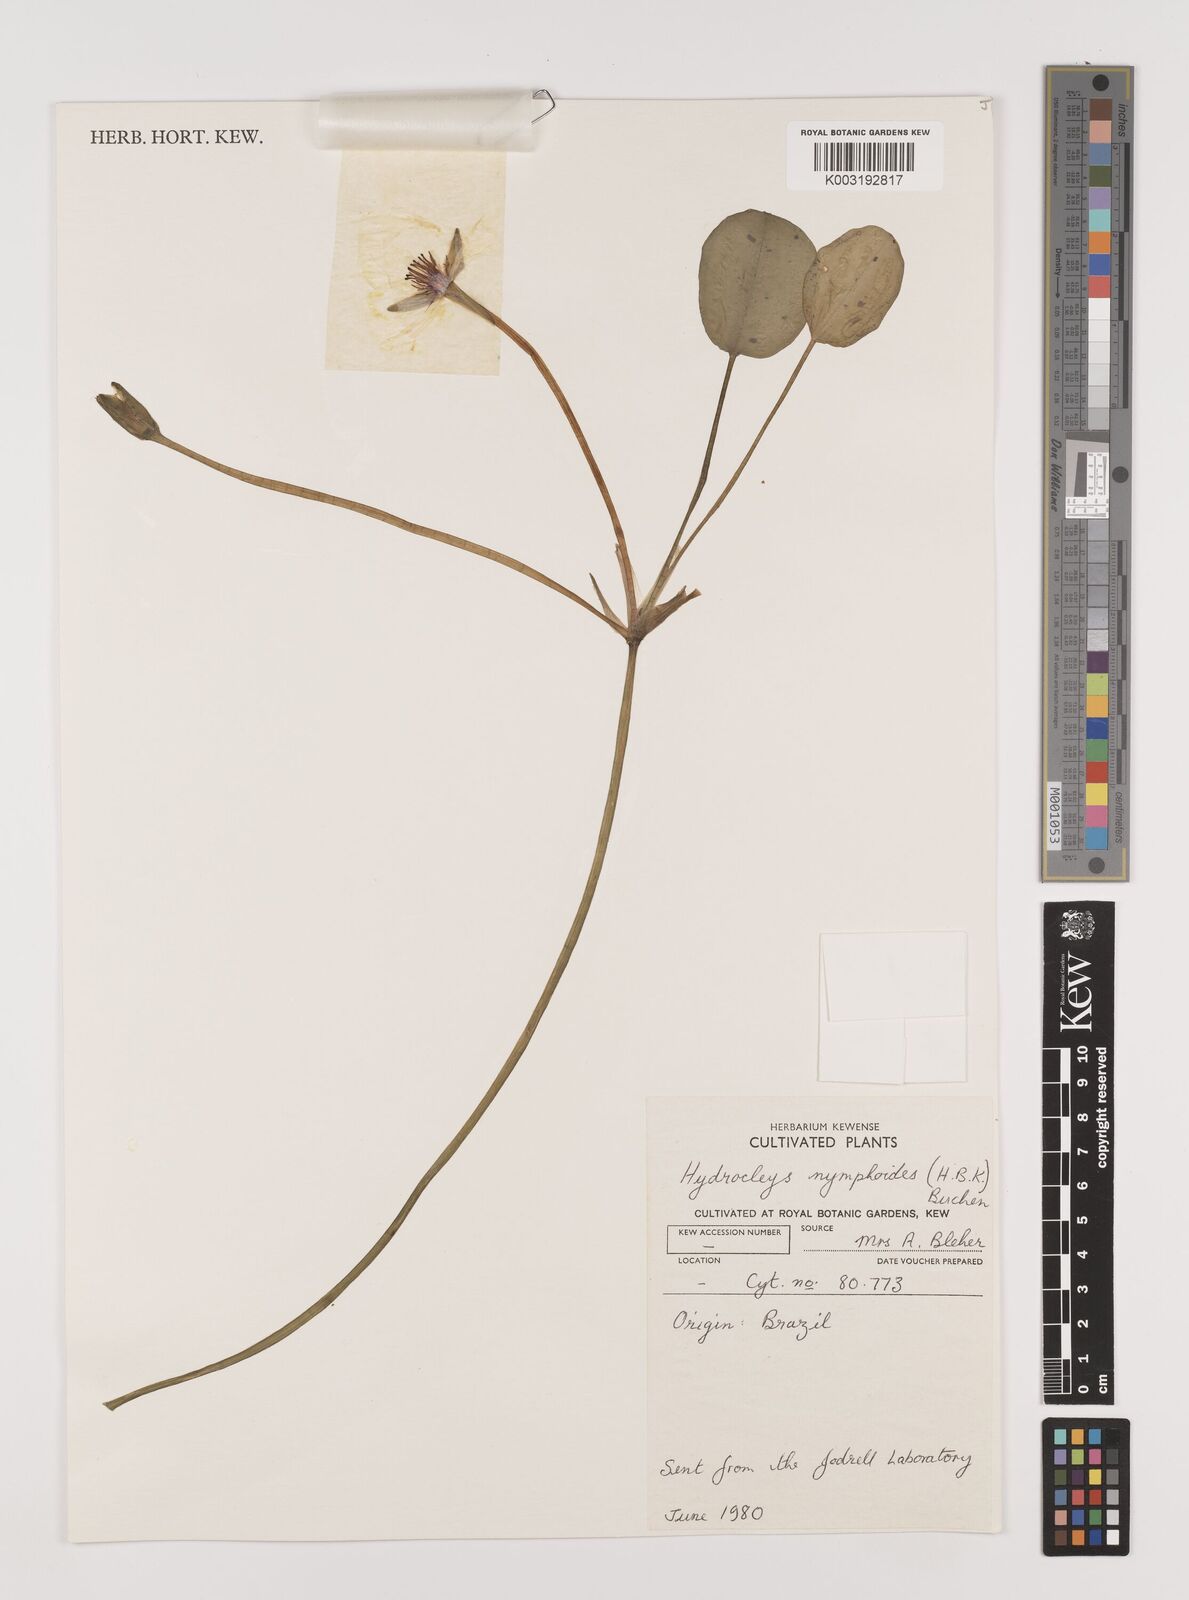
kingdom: Plantae
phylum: Tracheophyta
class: Liliopsida
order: Alismatales
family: Alismataceae
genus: Hydrocleys
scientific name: Hydrocleys nymphoides
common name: Water-poppy
